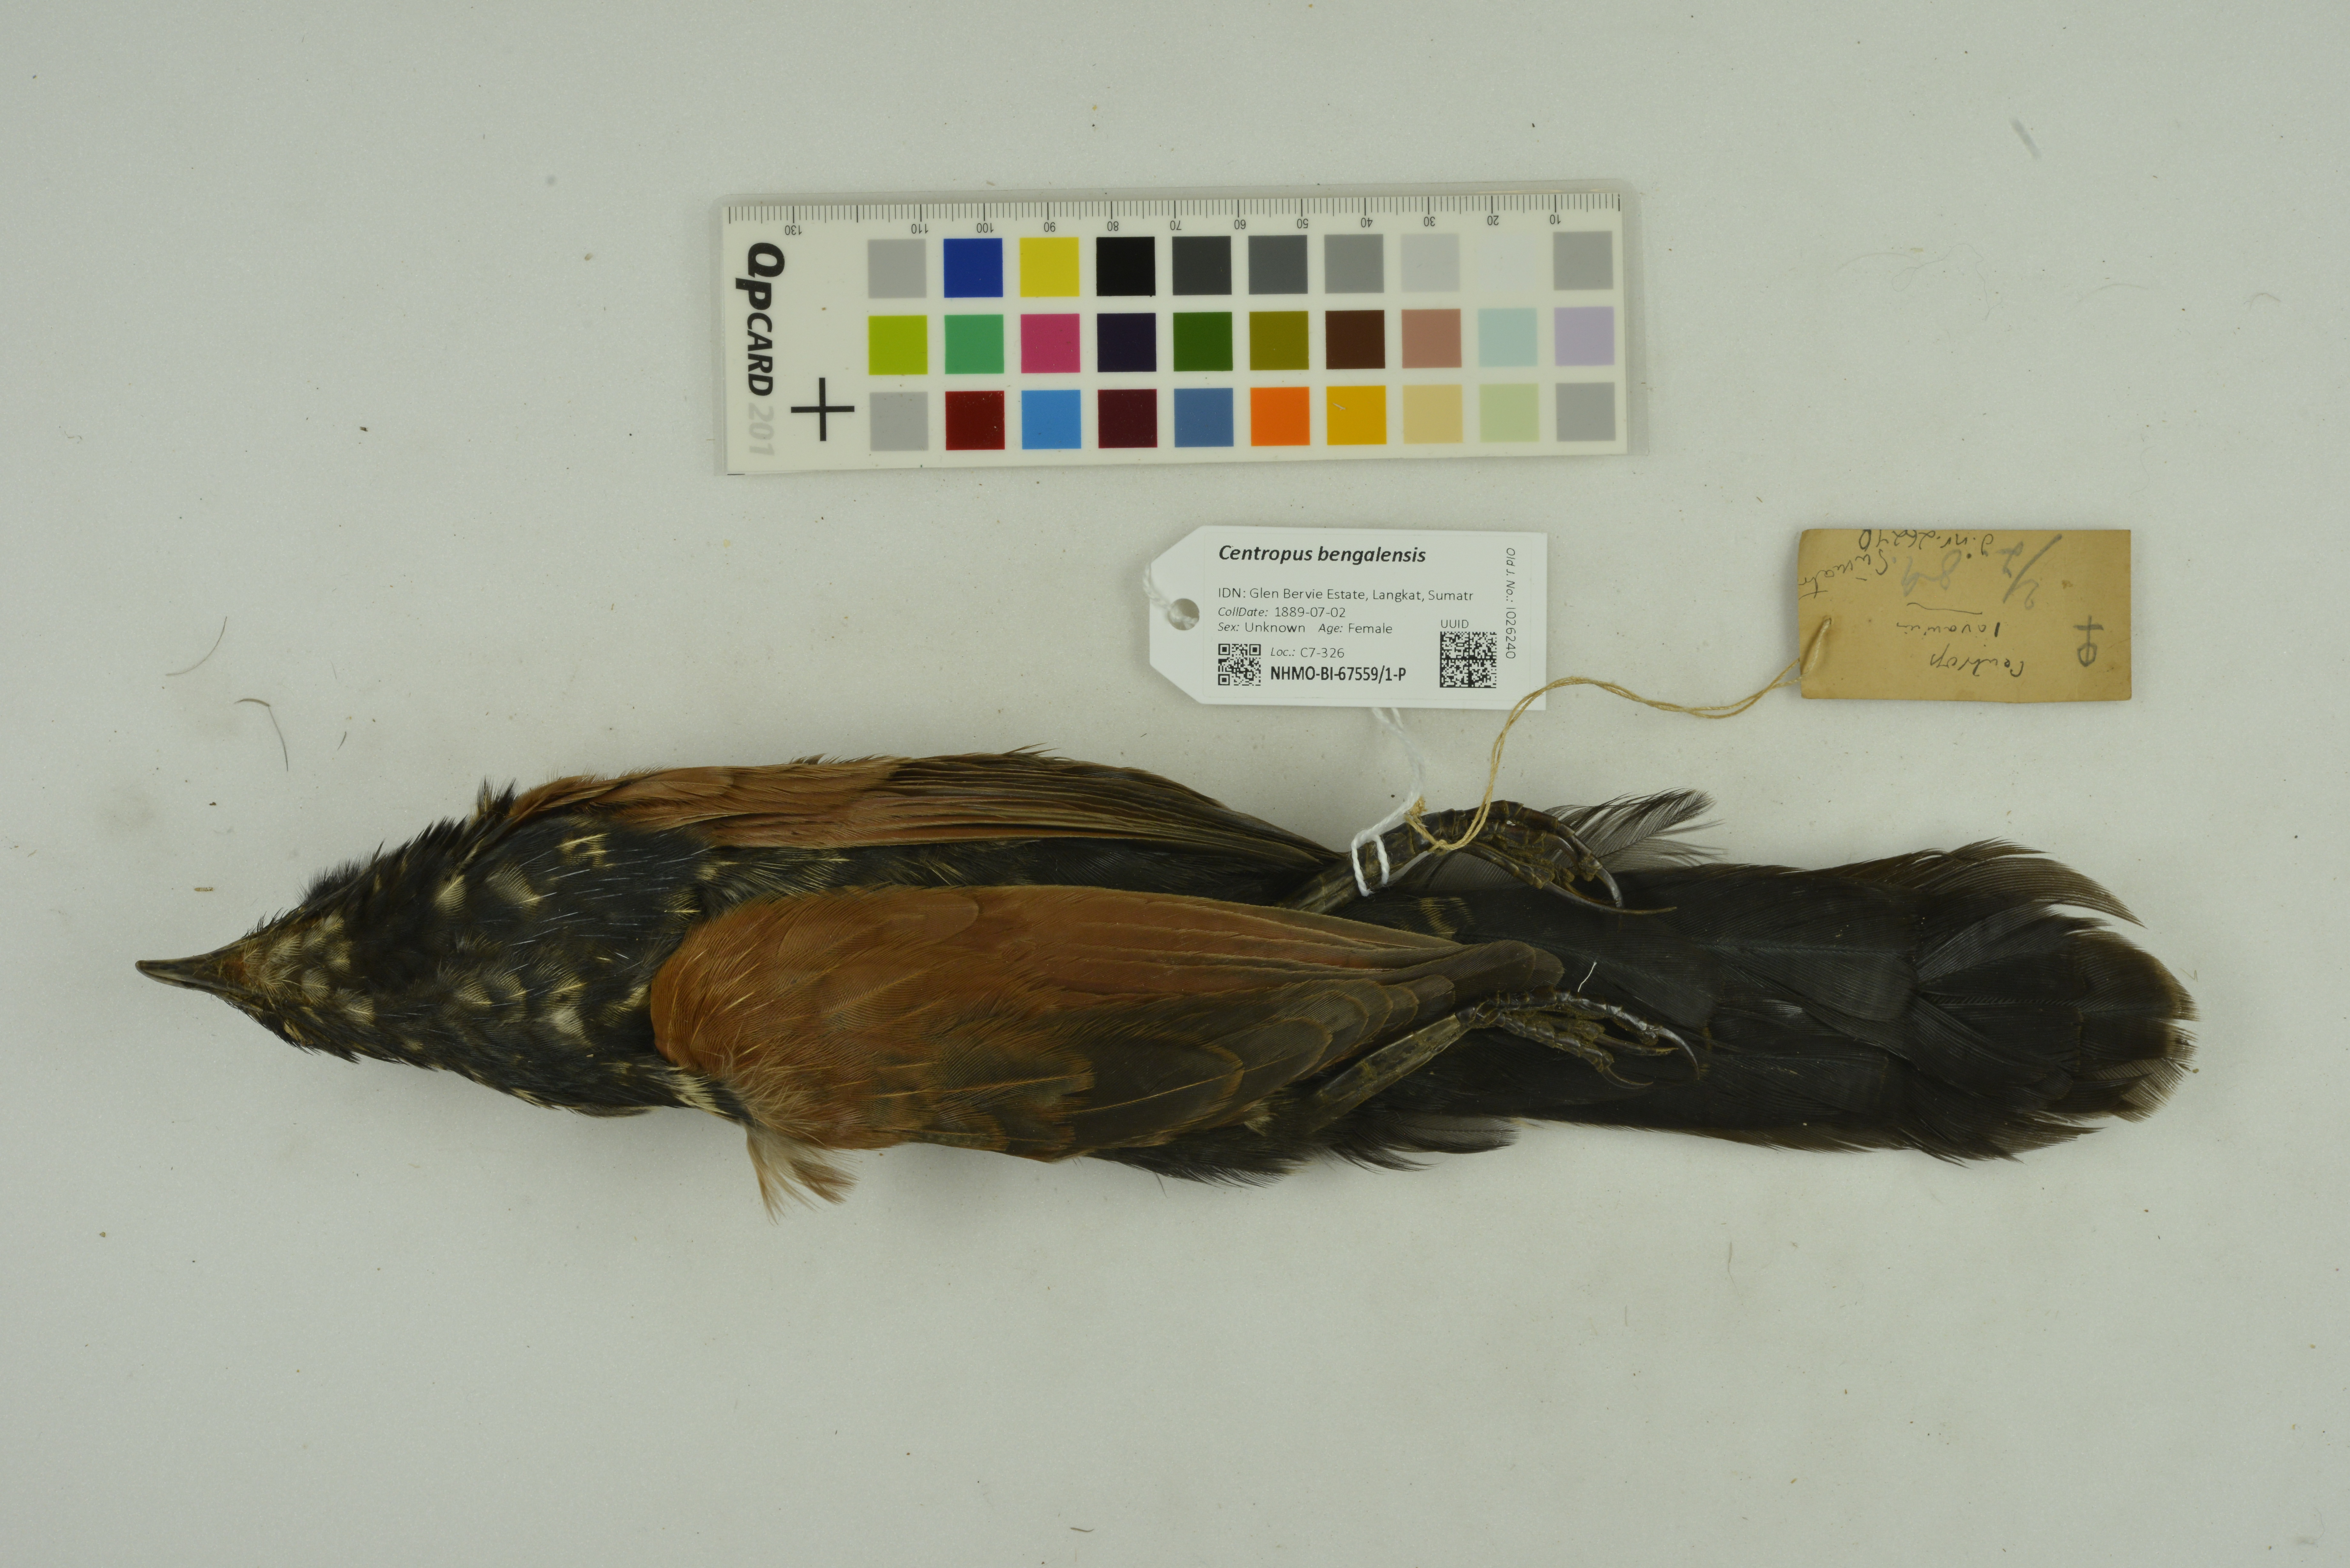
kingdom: Animalia
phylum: Chordata
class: Aves
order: Cuculiformes
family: Cuculidae
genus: Centropus
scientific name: Centropus bengalensis
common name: Lesser coucal
